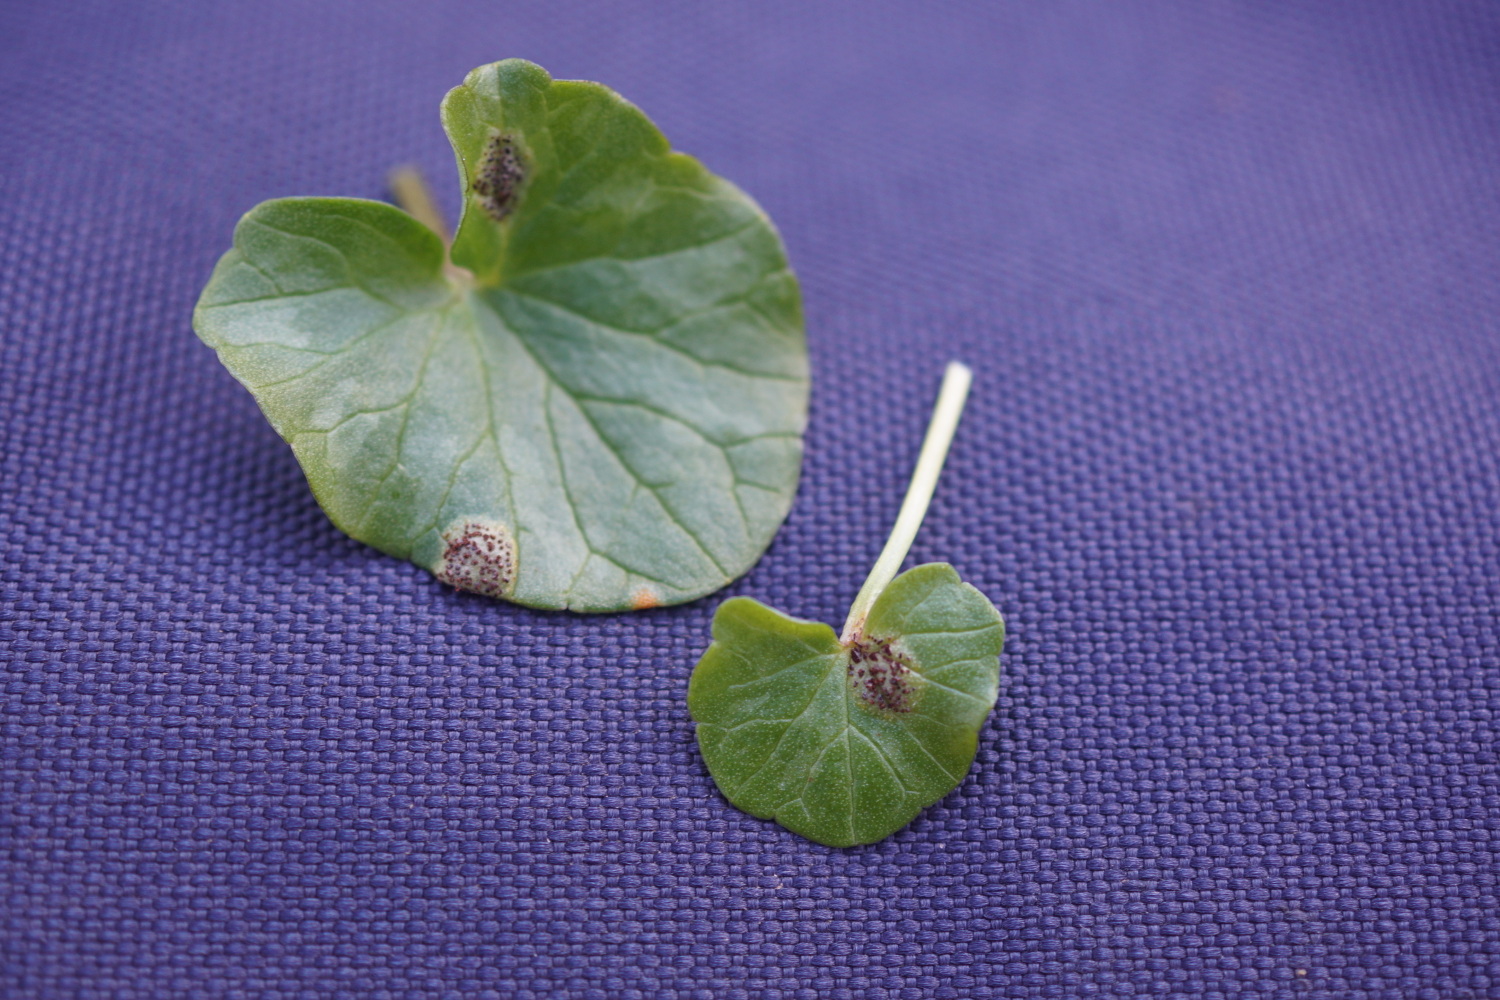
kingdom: Fungi
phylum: Basidiomycota
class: Pucciniomycetes
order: Pucciniales
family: Pucciniaceae
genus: Uromyces
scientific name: Uromyces ficariae
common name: vorterod-encellerust
